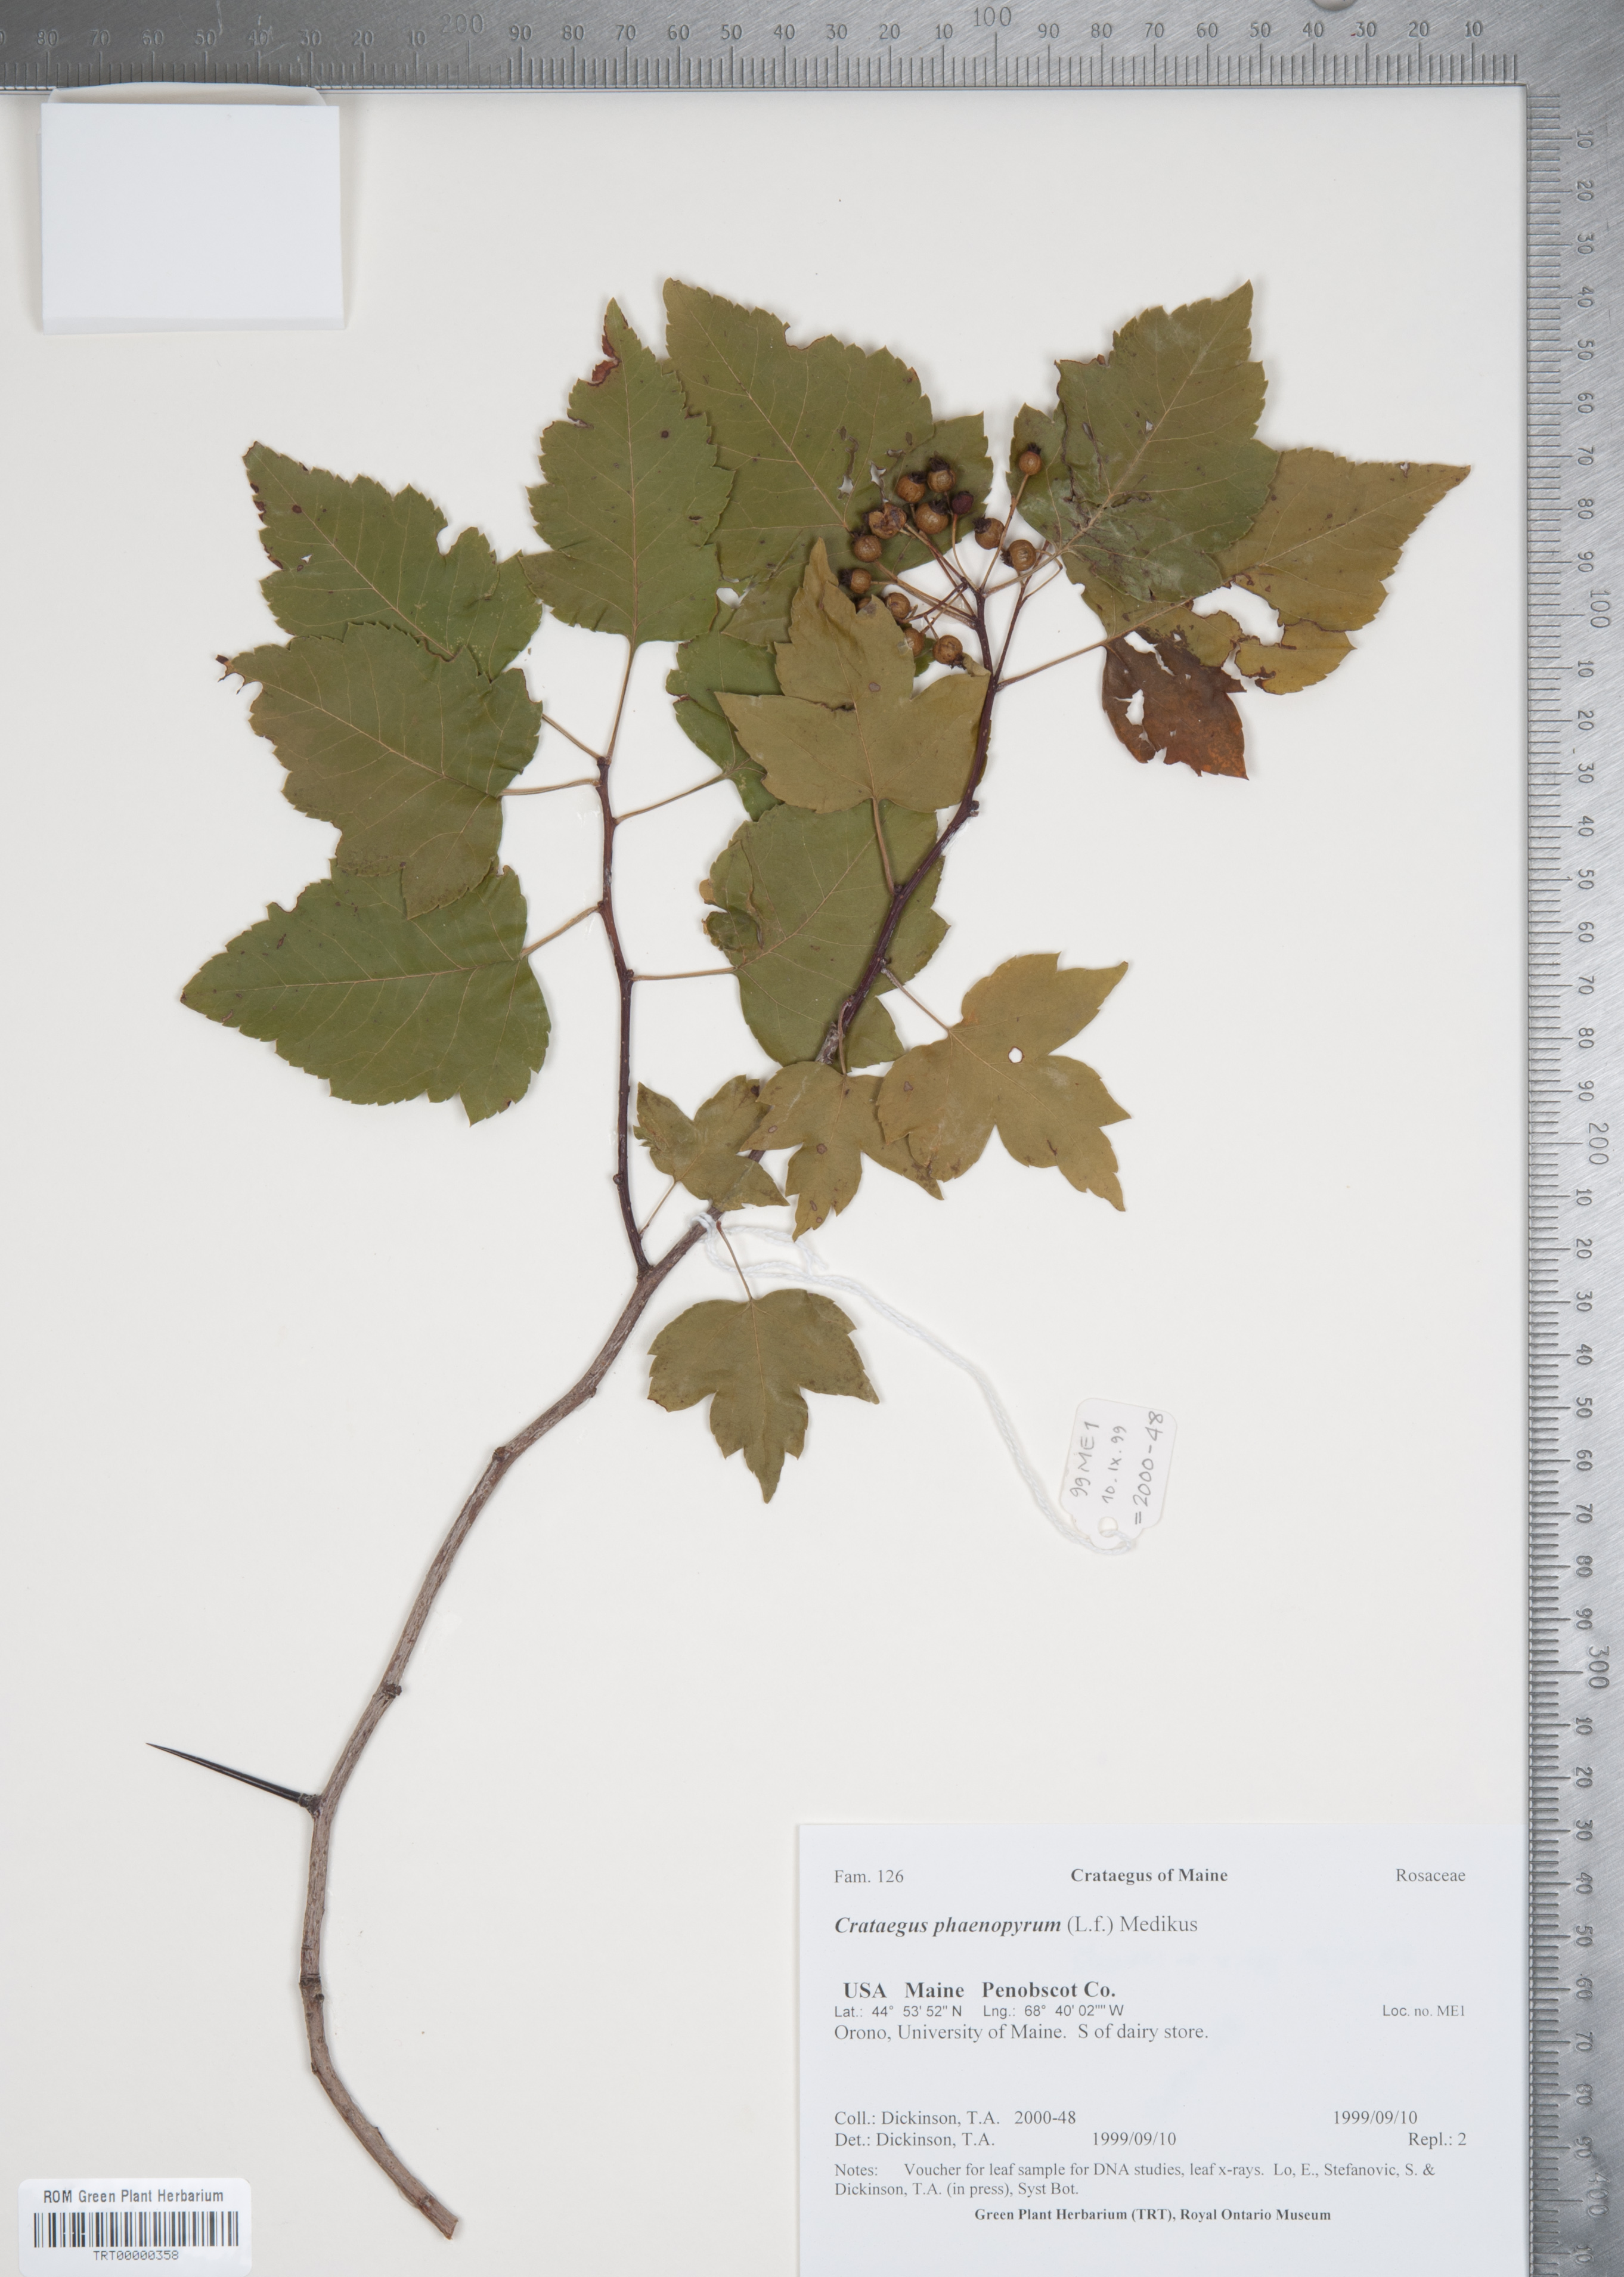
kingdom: Plantae
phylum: Tracheophyta
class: Magnoliopsida
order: Rosales
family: Rosaceae
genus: Crataegus
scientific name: Crataegus phaenopyrum
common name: Washington hawthorn
